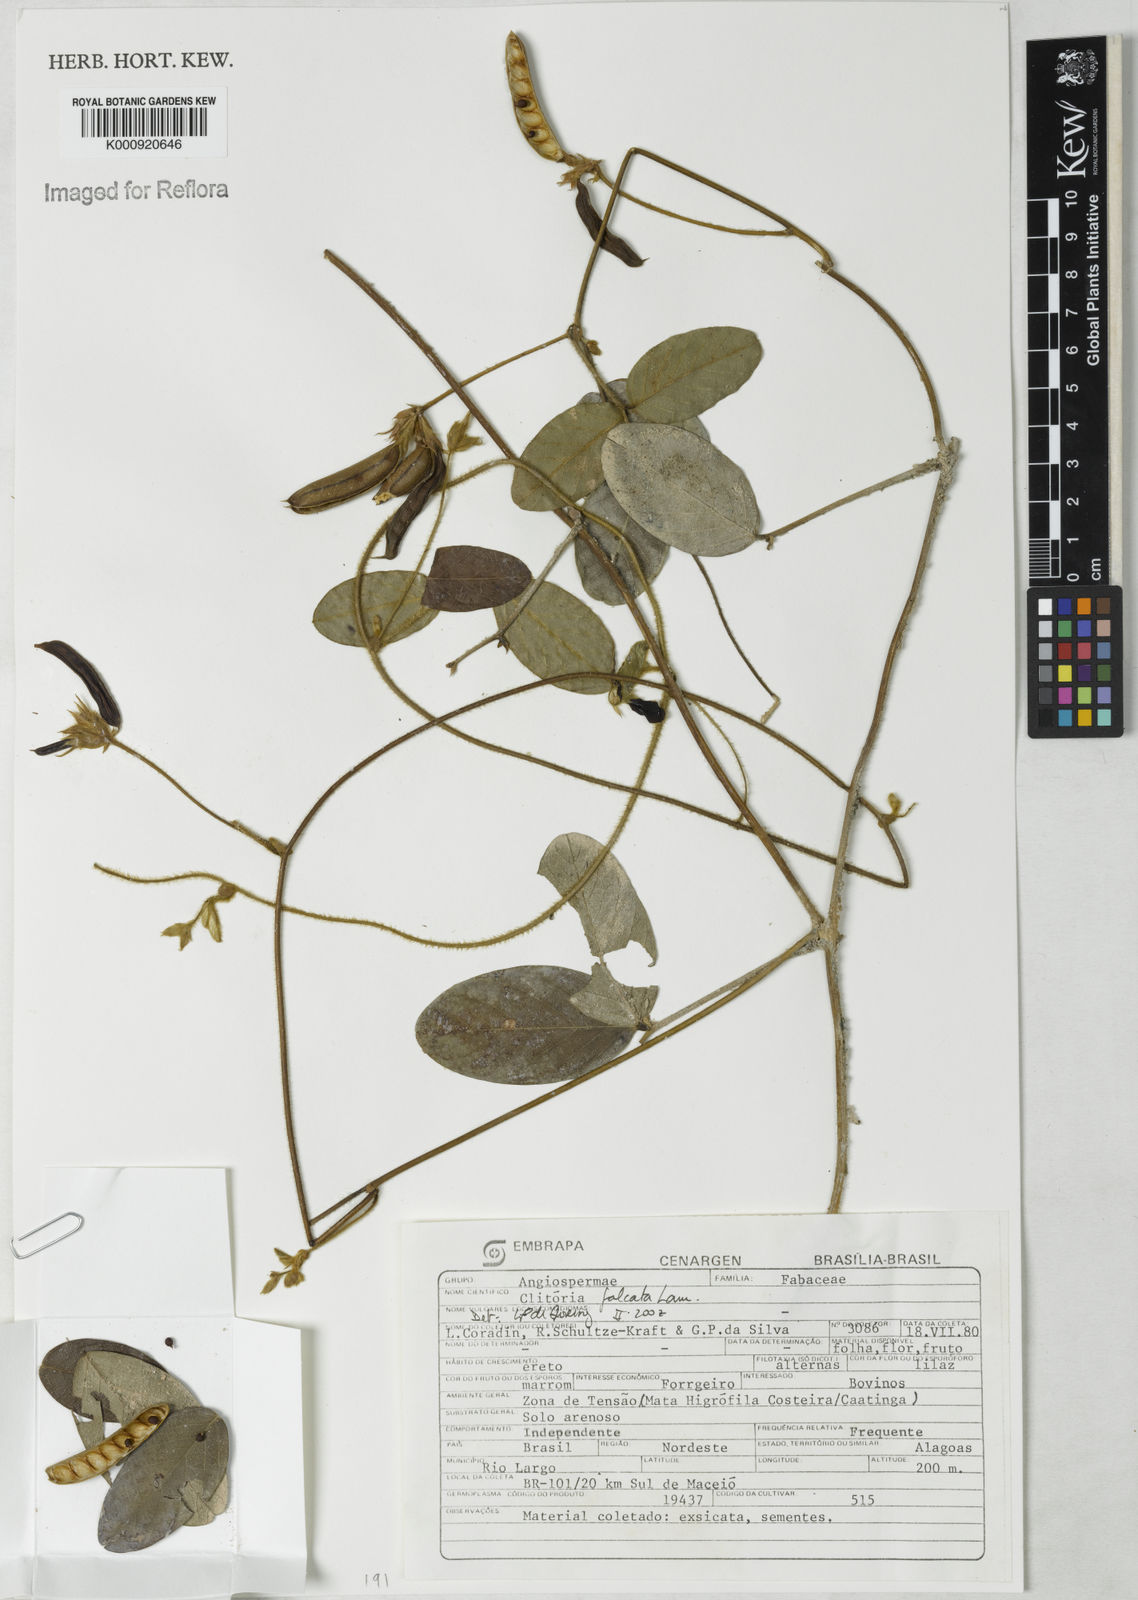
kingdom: Plantae
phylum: Tracheophyta
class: Magnoliopsida
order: Fabales
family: Fabaceae
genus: Clitoria
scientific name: Clitoria falcata
